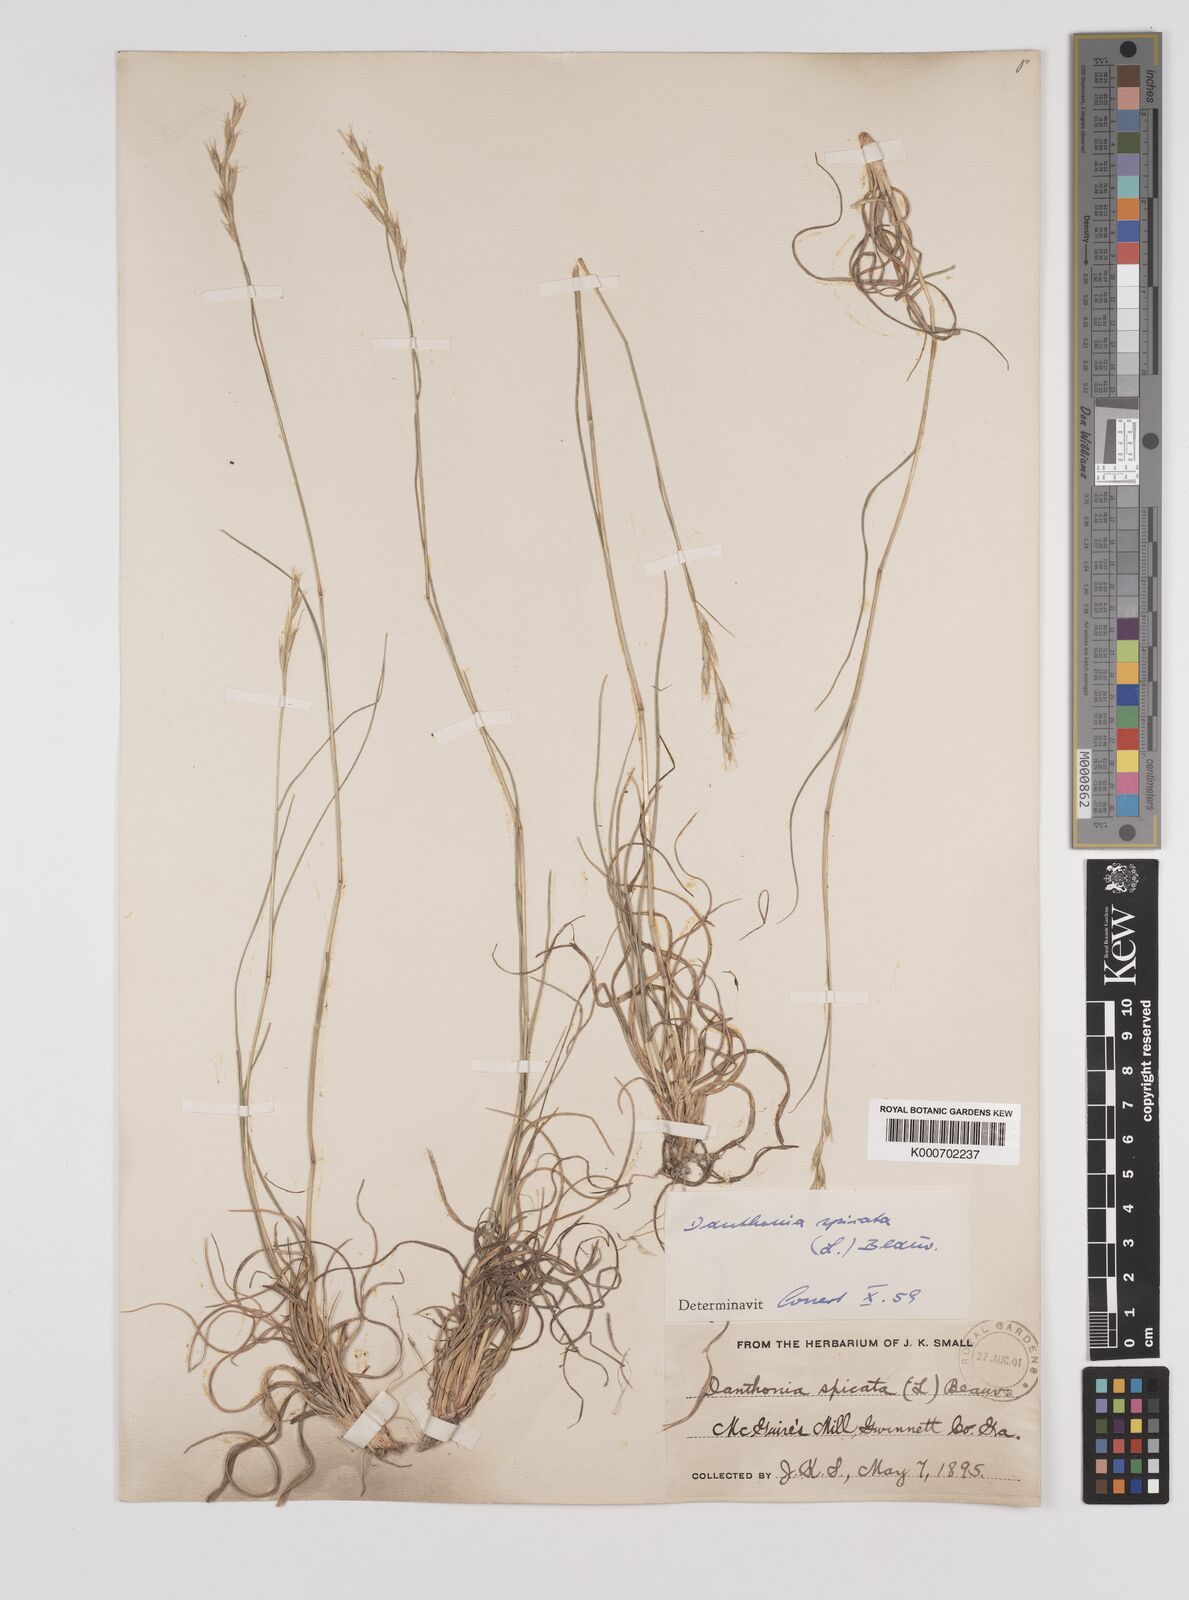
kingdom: Plantae
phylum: Tracheophyta
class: Liliopsida
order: Poales
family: Poaceae
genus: Danthonia
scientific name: Danthonia spicata
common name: Common wild oatgrass
